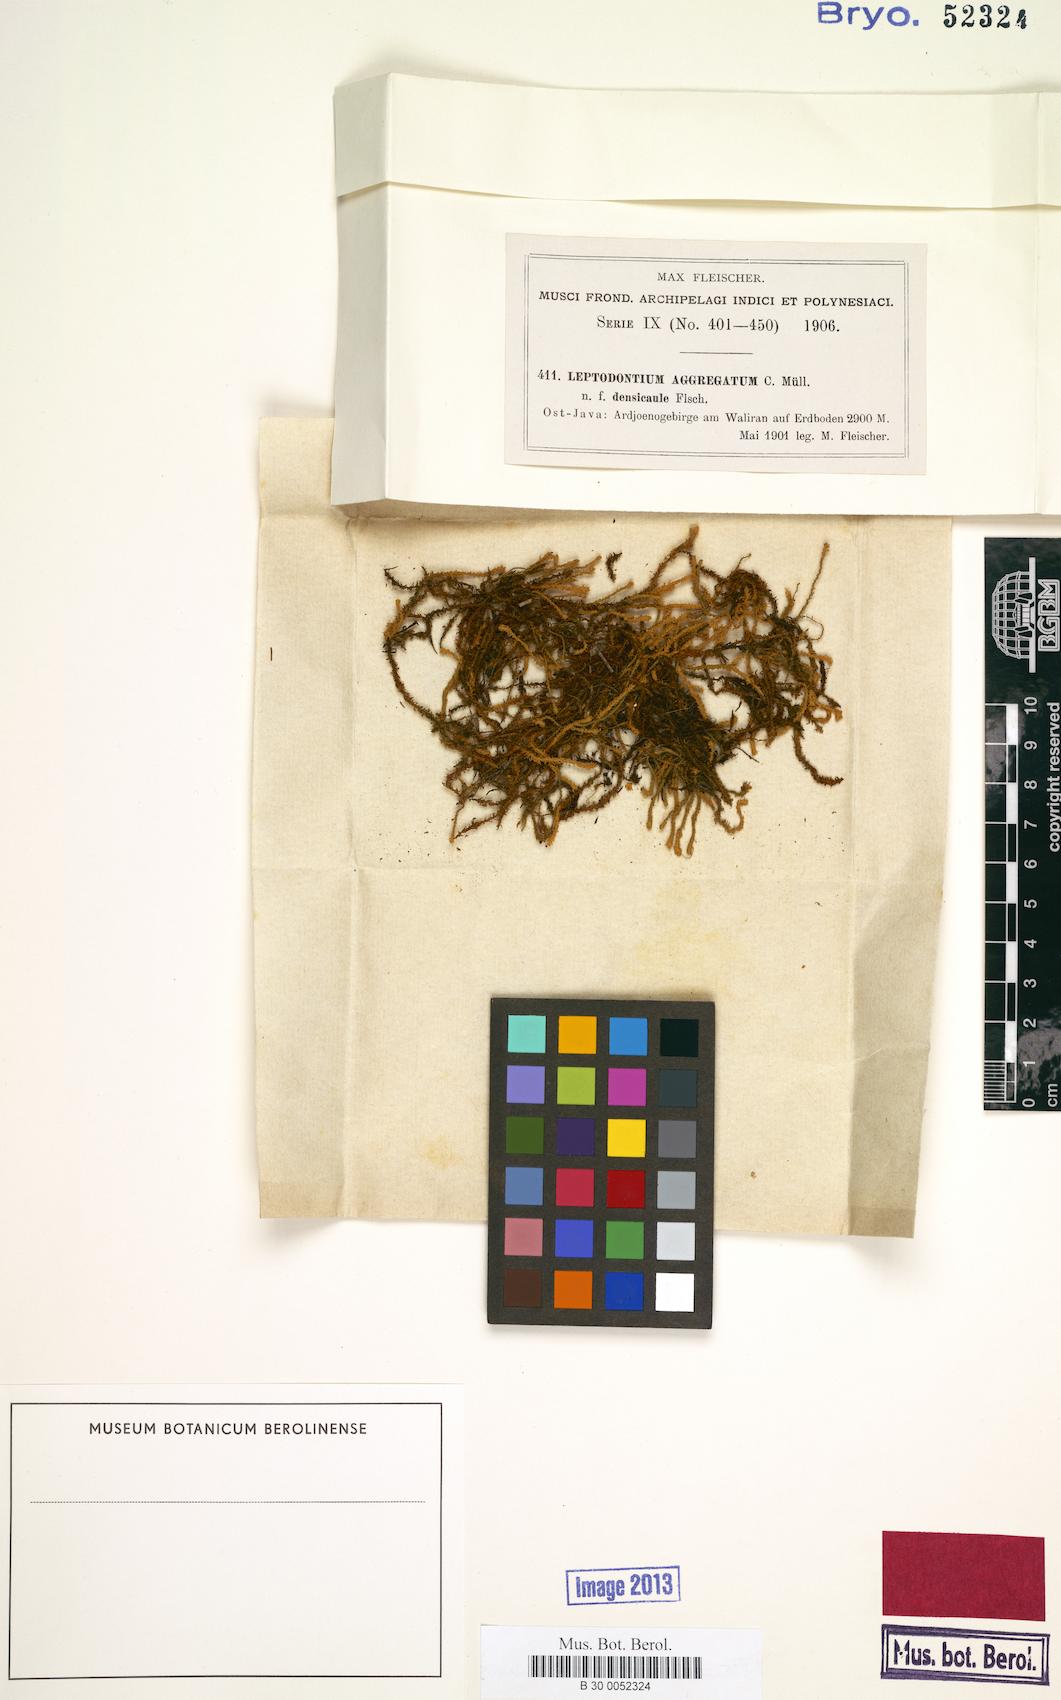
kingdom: Plantae
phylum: Bryophyta
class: Bryopsida
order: Pottiales
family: Pottiaceae
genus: Leptodontium
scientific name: Leptodontium aggregatum
